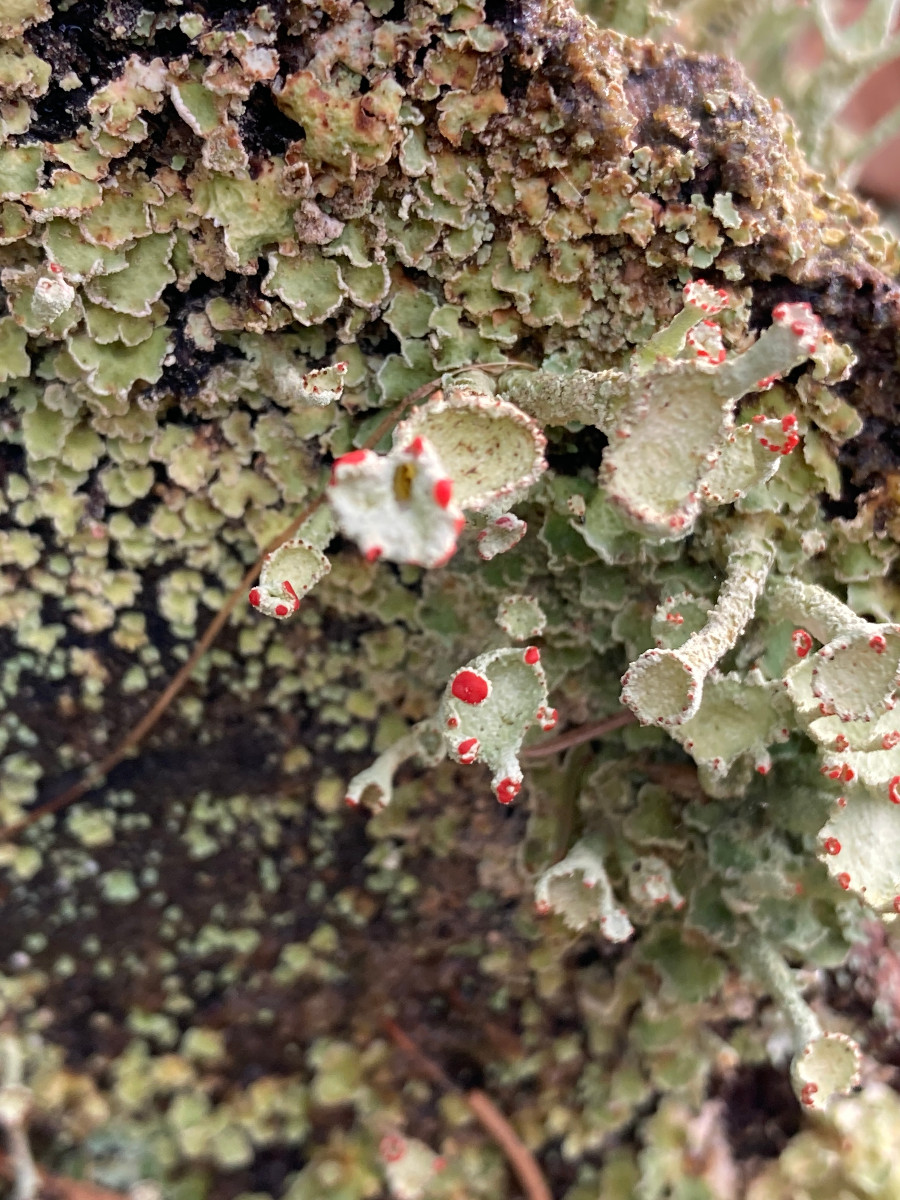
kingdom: Fungi
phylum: Ascomycota
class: Lecanoromycetes
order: Lecanorales
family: Cladoniaceae
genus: Cladonia
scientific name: Cladonia digitata
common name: finger-bægerlav
